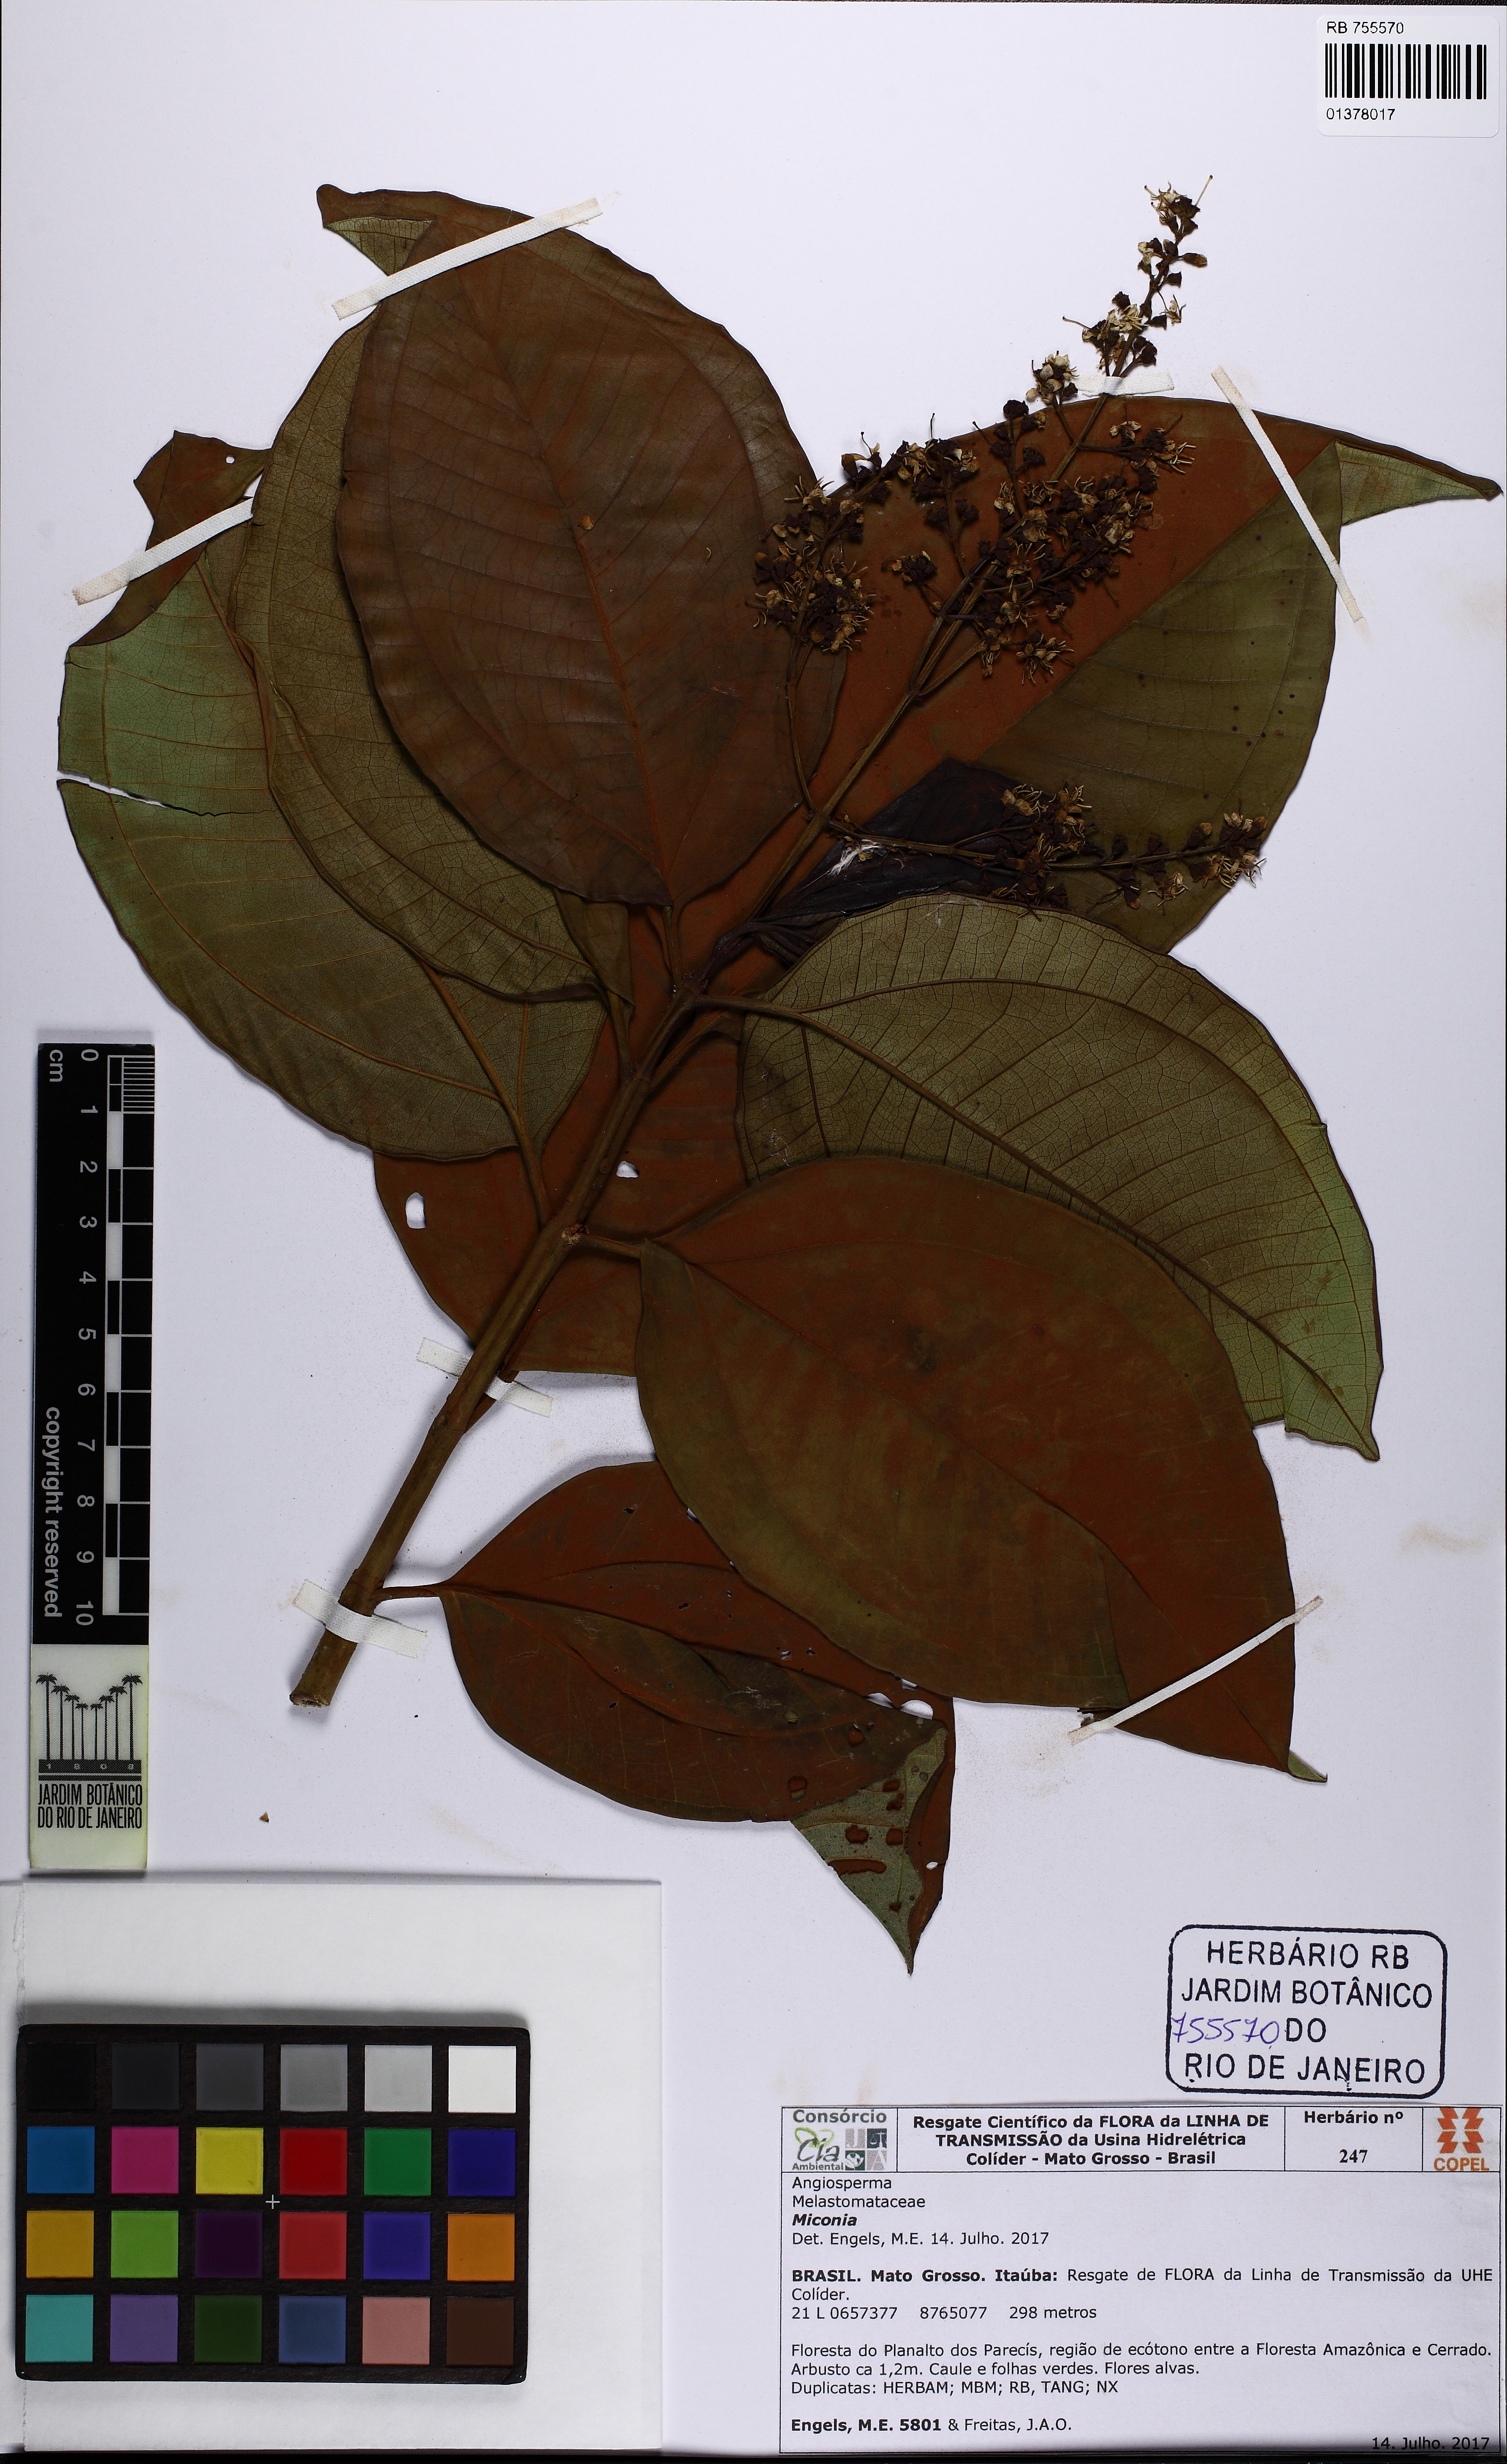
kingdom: Plantae
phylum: Tracheophyta
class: Magnoliopsida
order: Myrtales
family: Melastomataceae
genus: Miconia
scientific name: Miconia
